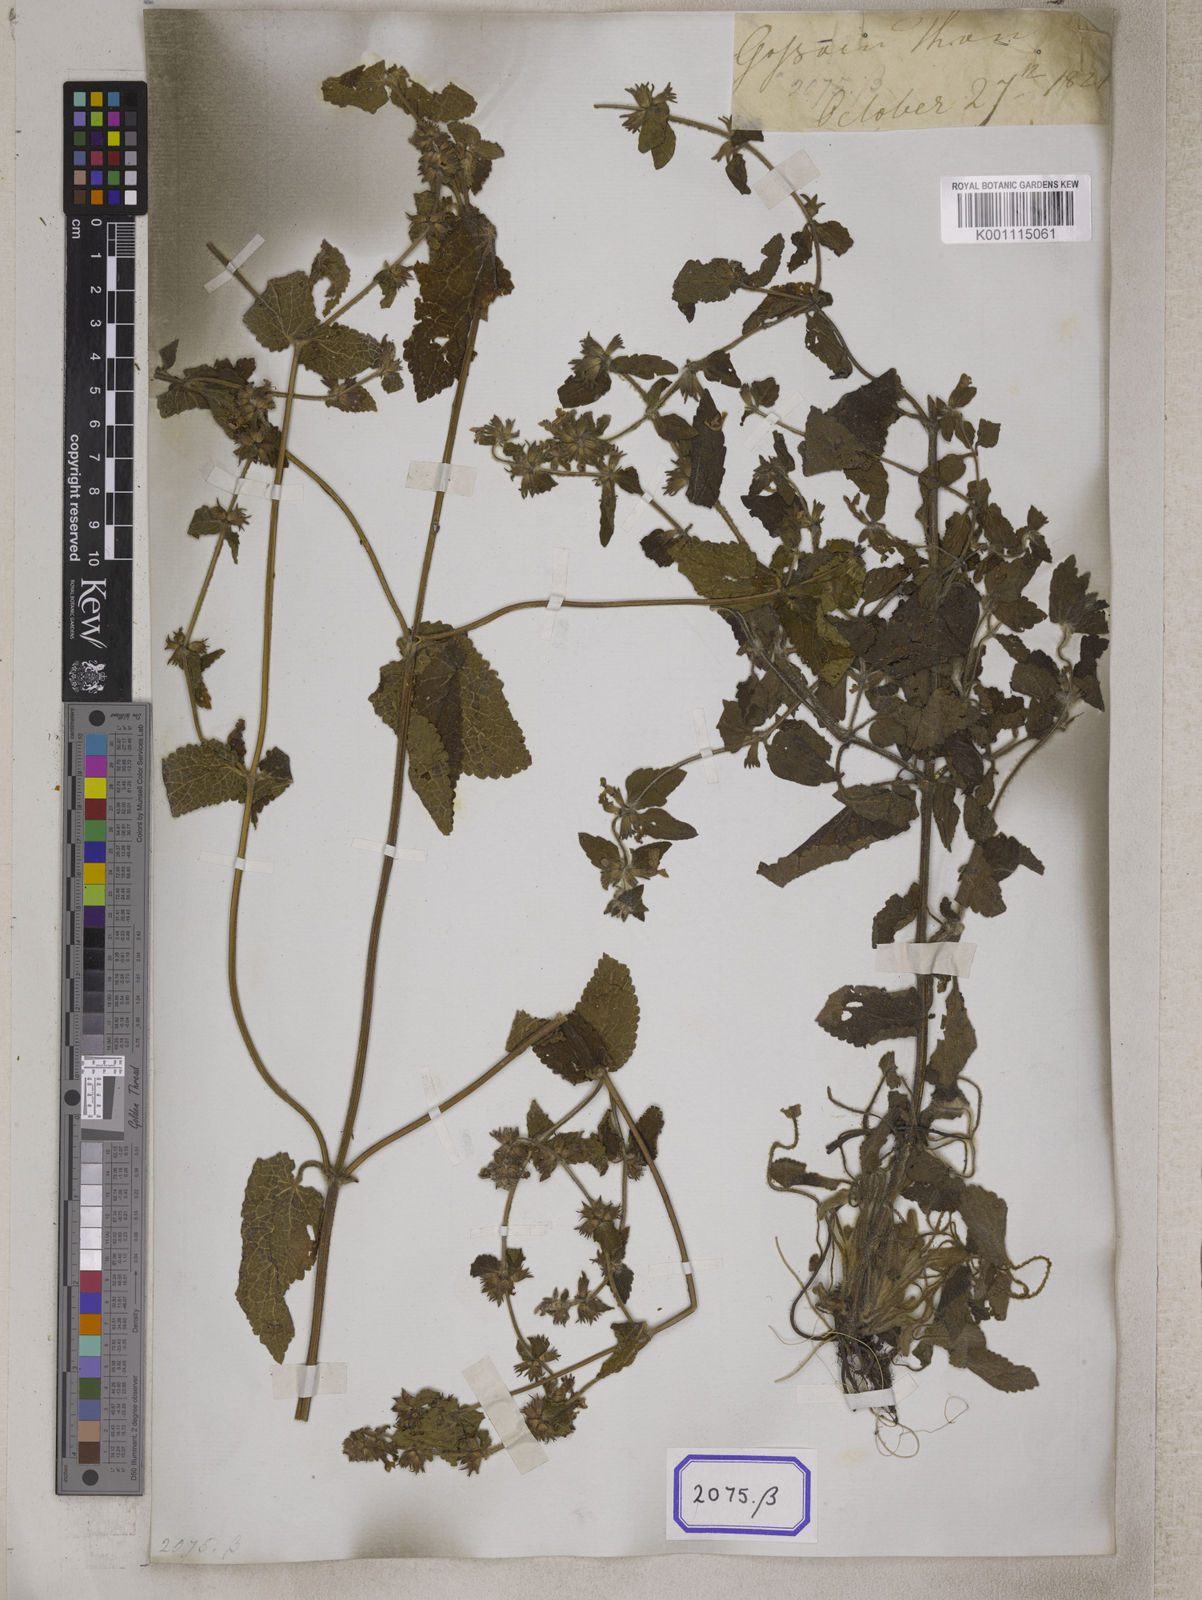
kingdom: Plantae
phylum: Tracheophyta
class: Magnoliopsida
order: Lamiales
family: Lamiaceae
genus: Stachys
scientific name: Stachys
